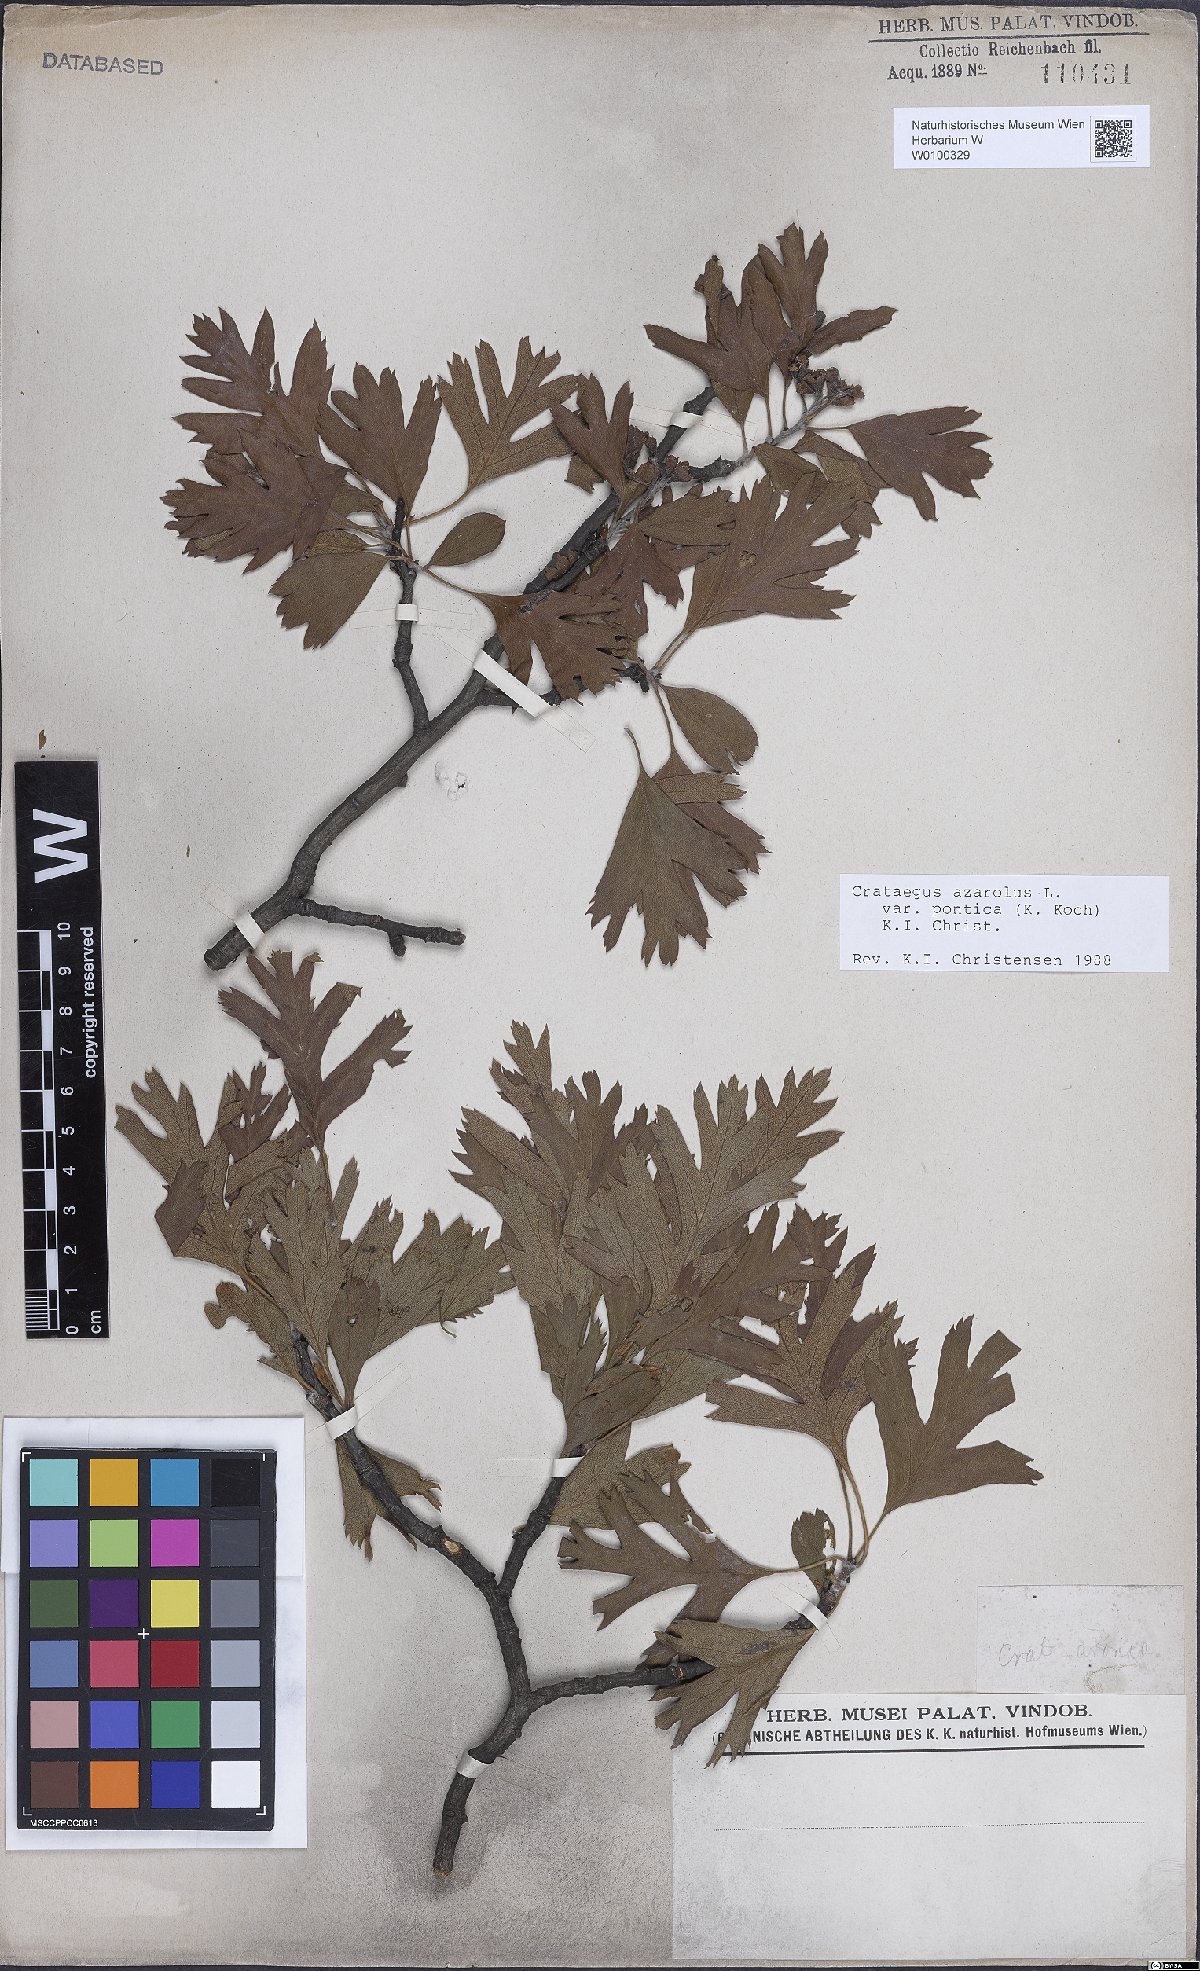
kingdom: Plantae
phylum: Tracheophyta
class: Magnoliopsida
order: Rosales
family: Rosaceae
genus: Crataegus
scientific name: Crataegus azarolus
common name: Azarole
